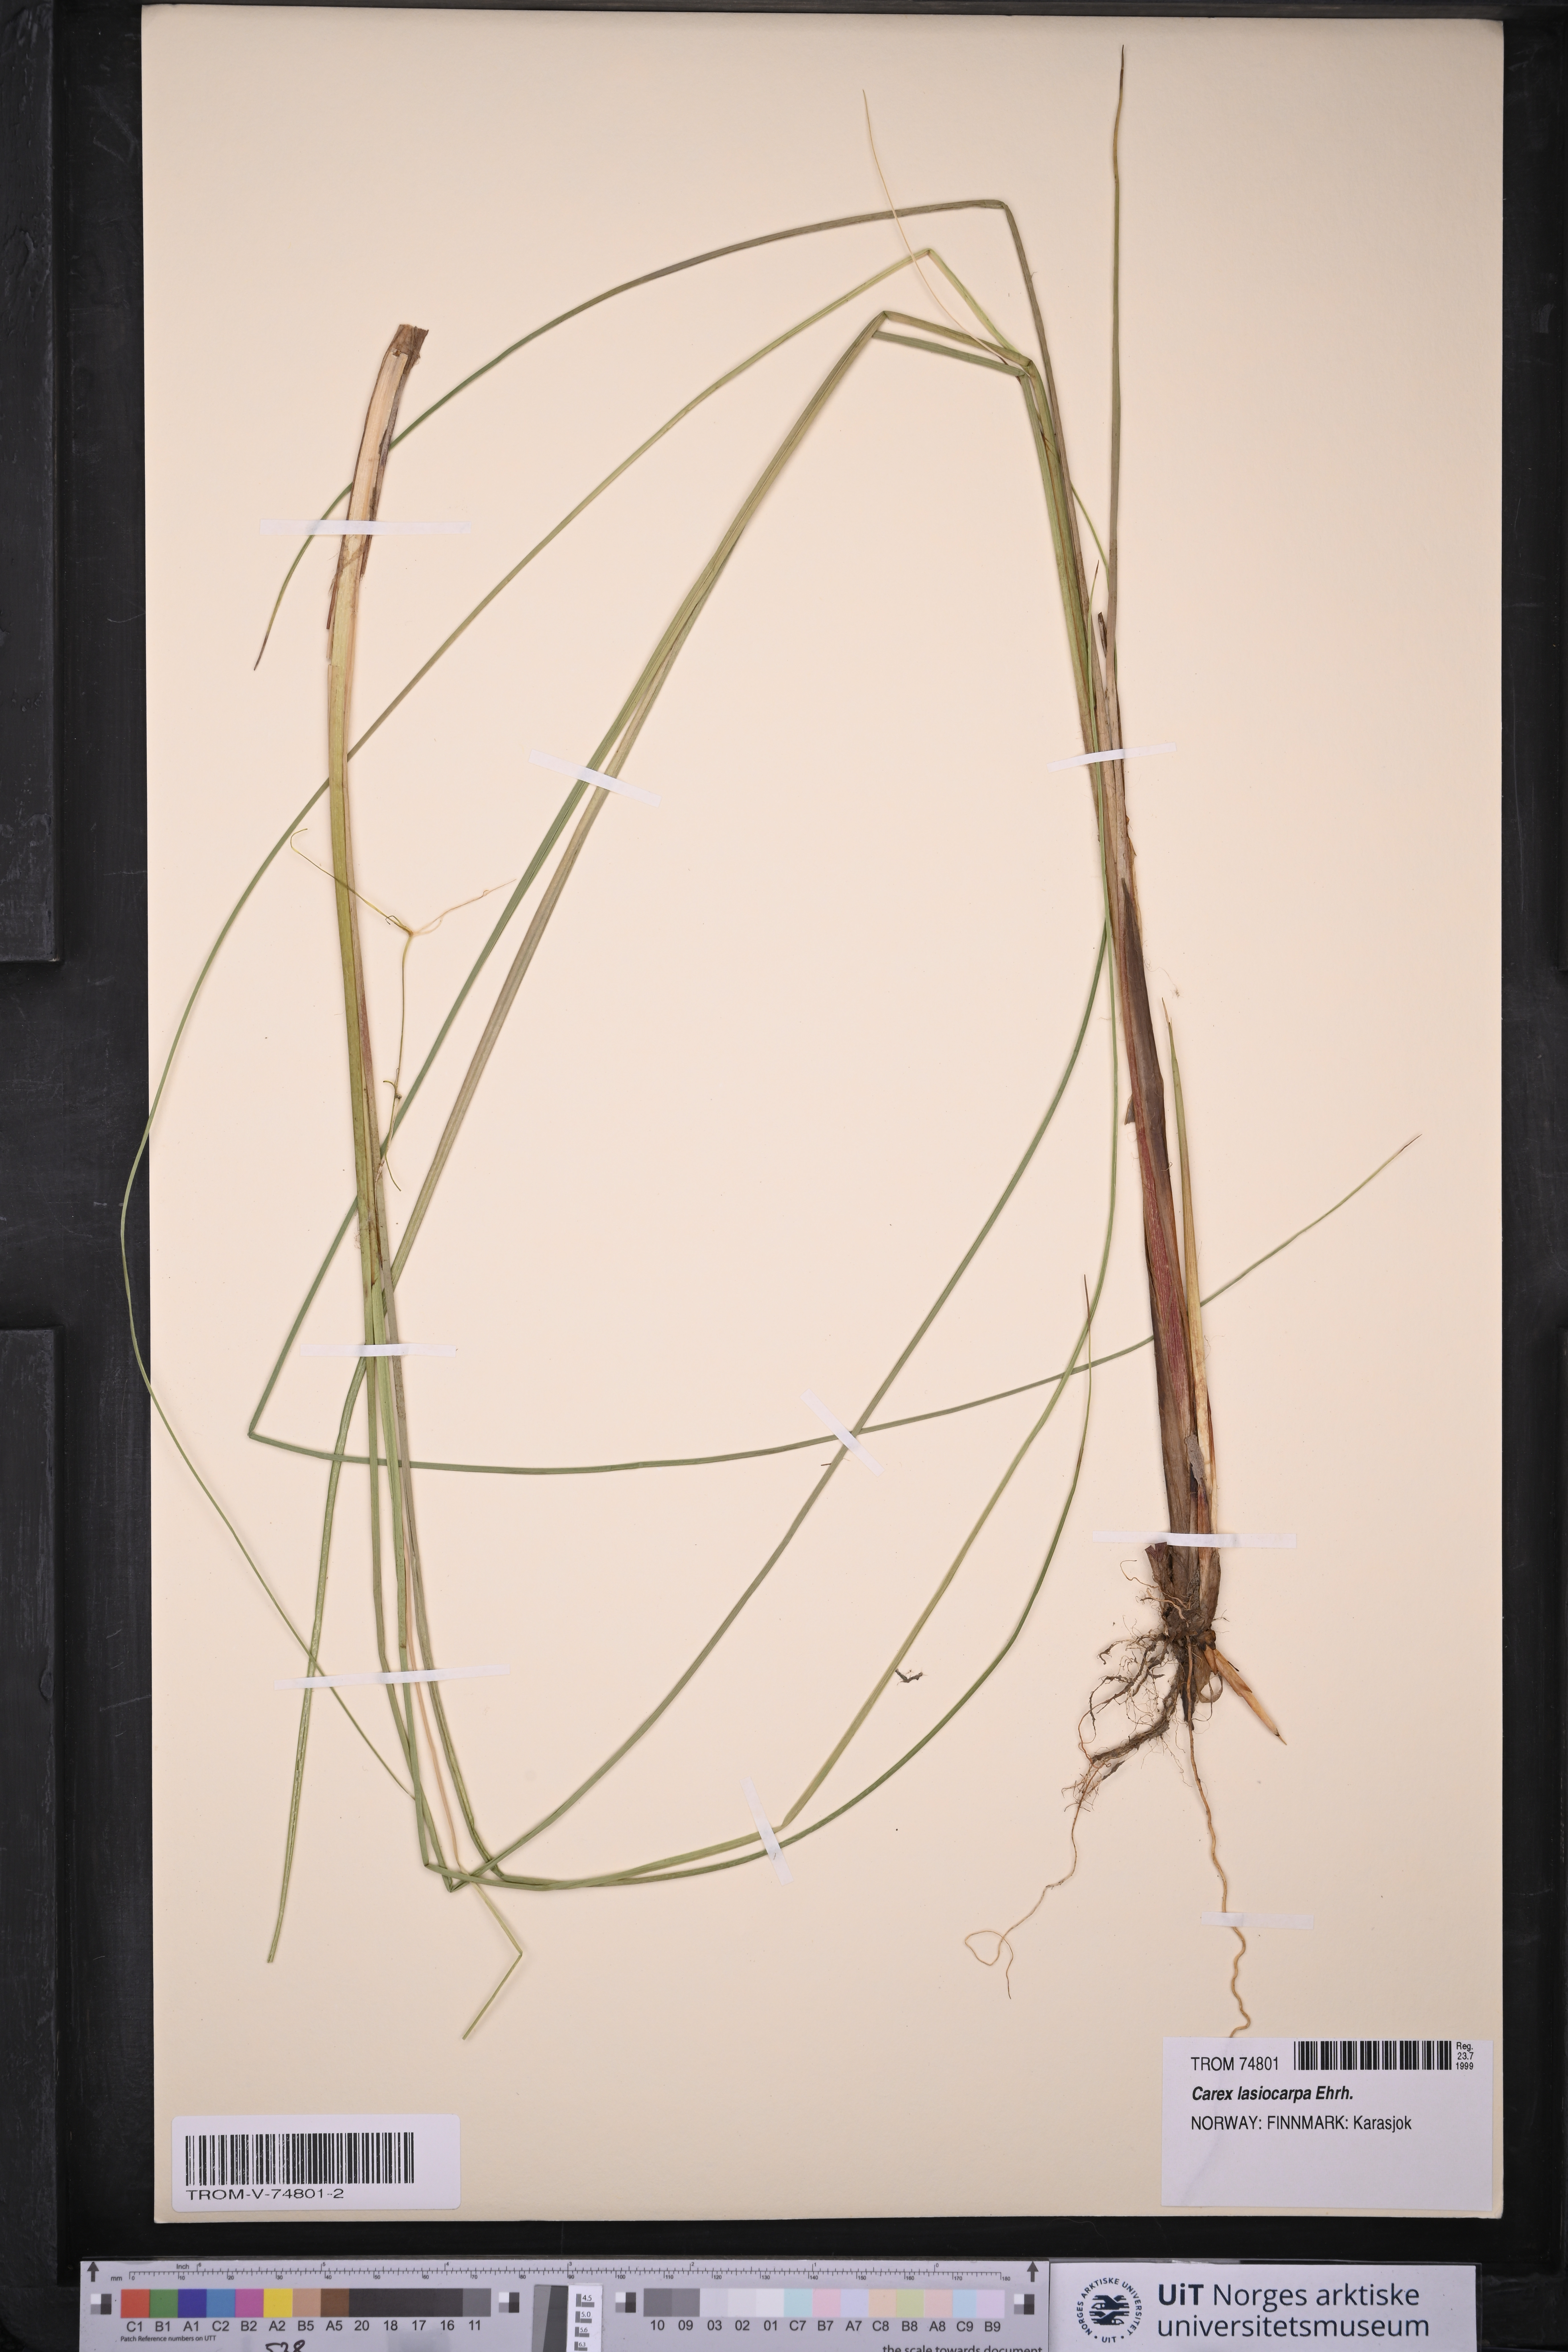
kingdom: Plantae
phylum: Tracheophyta
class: Liliopsida
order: Poales
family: Cyperaceae
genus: Carex
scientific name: Carex lasiocarpa
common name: Slender sedge
